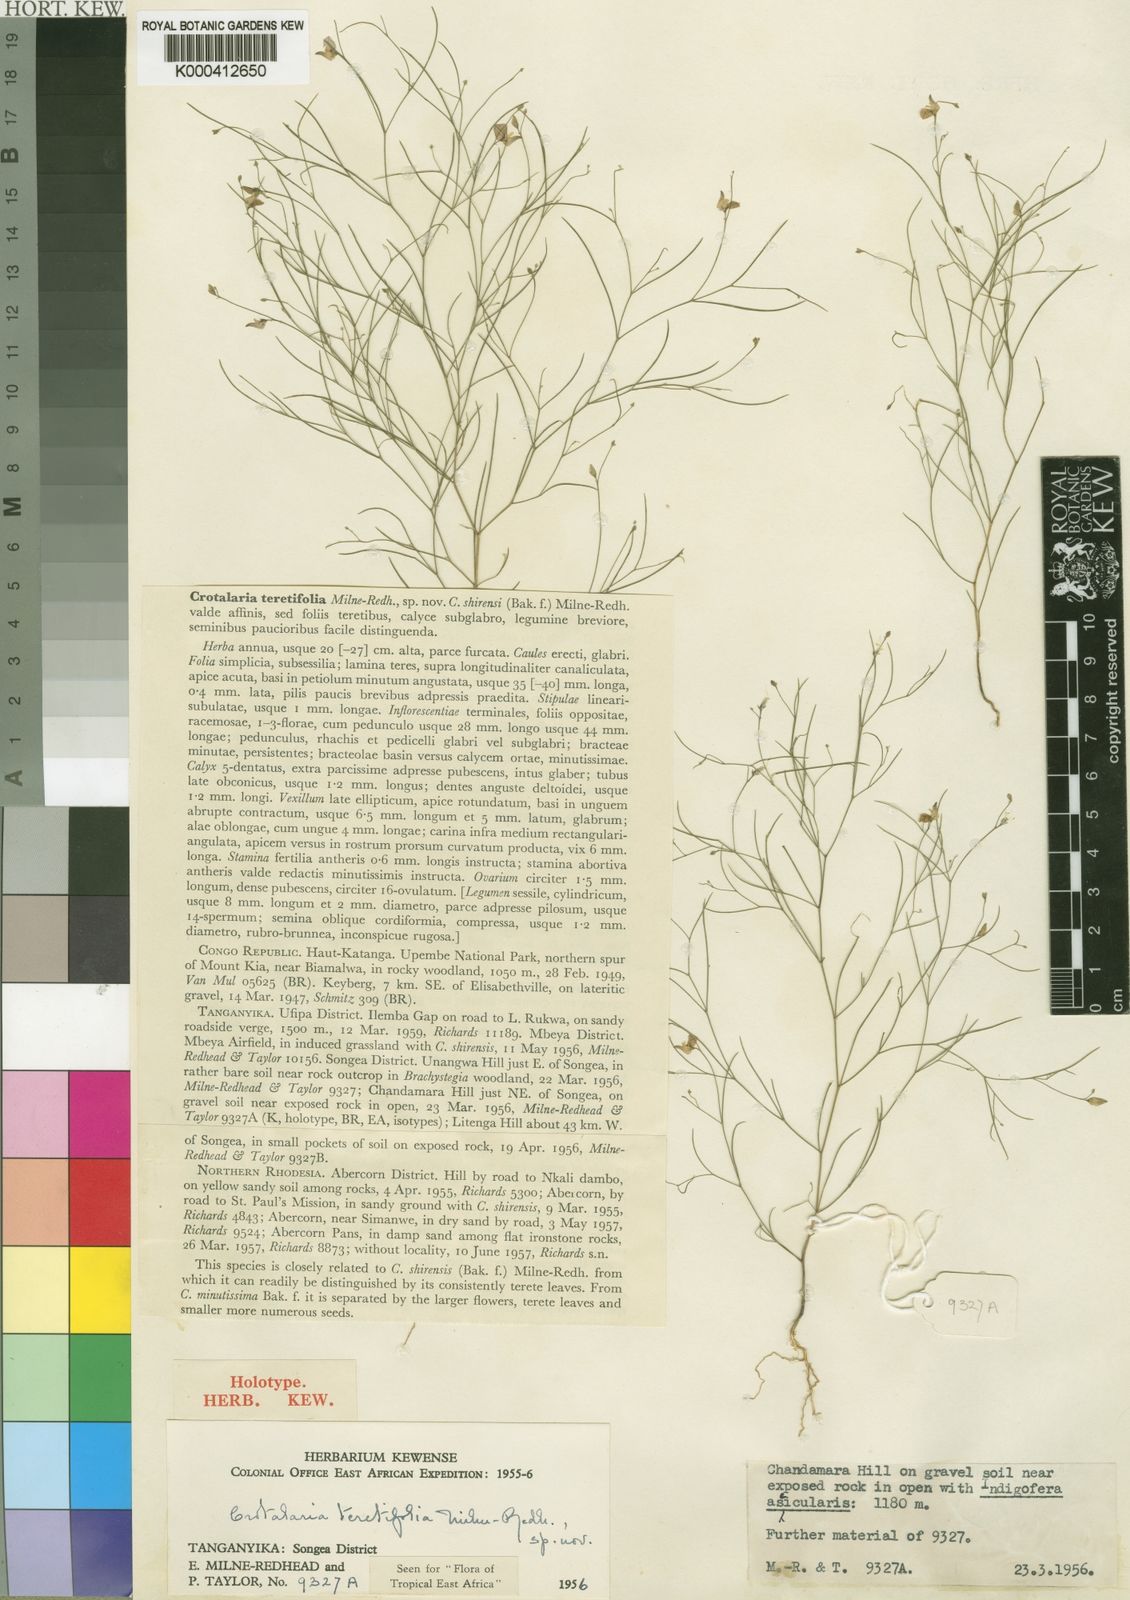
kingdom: Plantae
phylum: Tracheophyta
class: Magnoliopsida
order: Fabales
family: Fabaceae
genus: Crotalaria
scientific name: Crotalaria teretifolia
